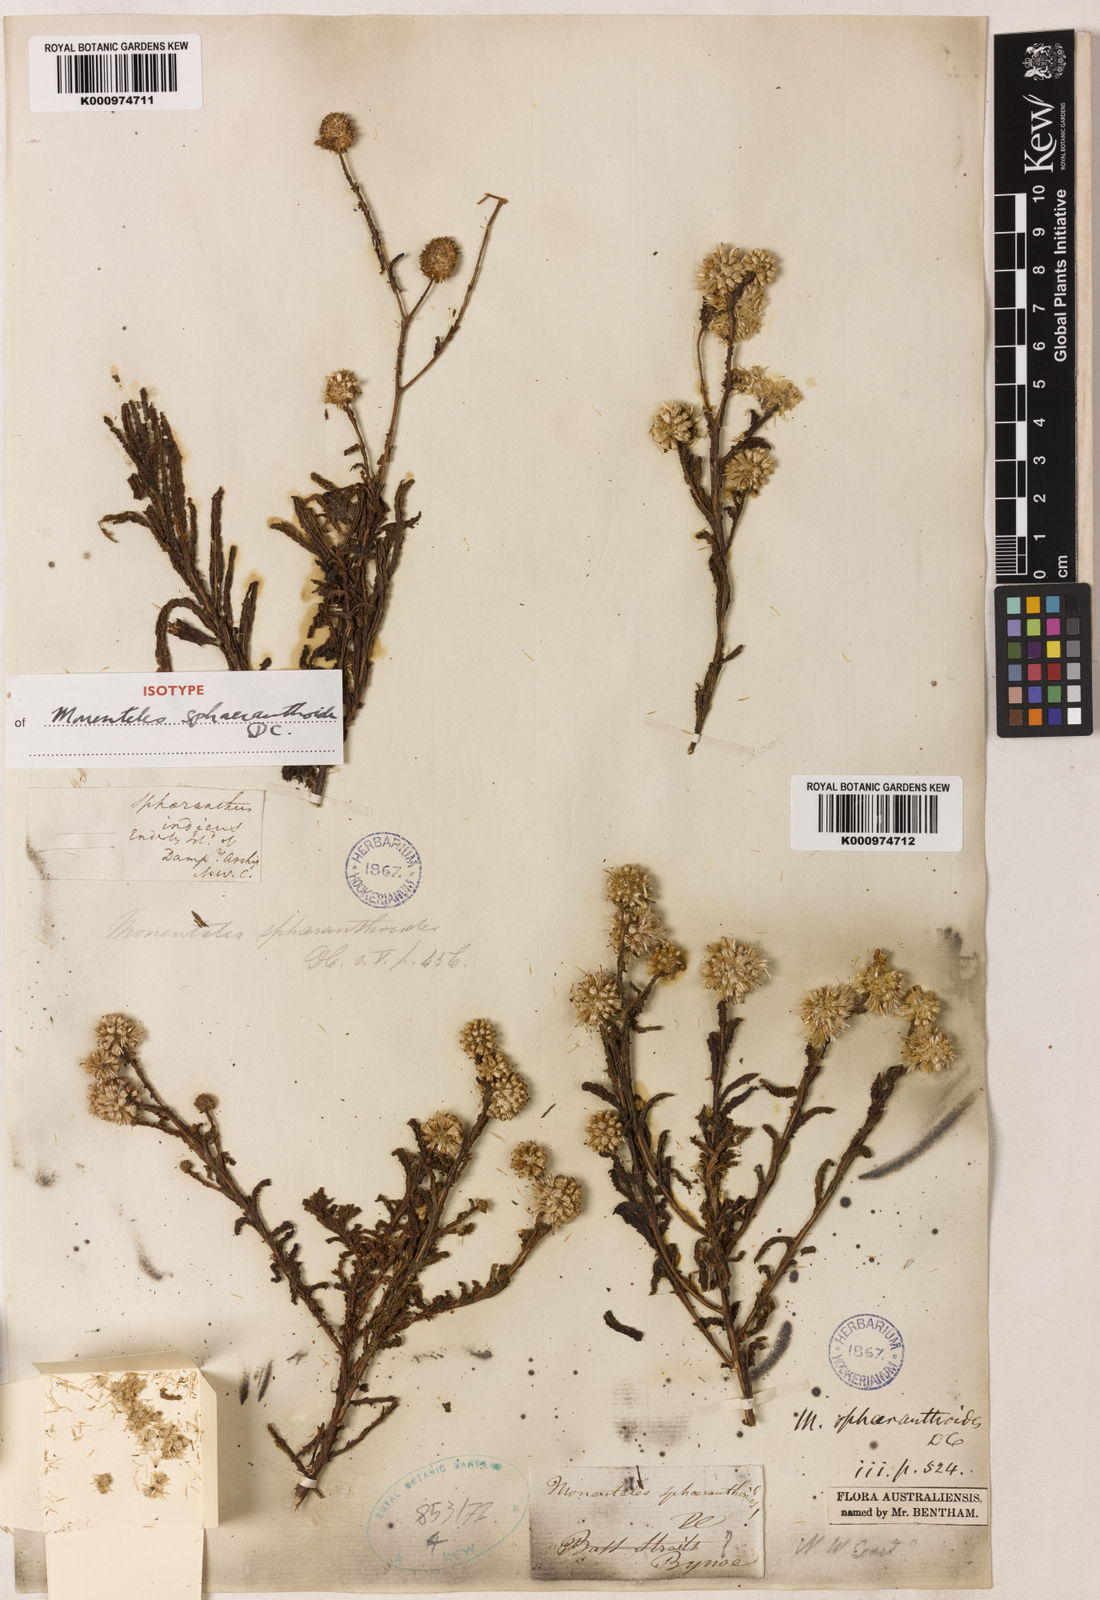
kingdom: Plantae
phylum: Tracheophyta
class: Magnoliopsida
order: Asterales
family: Asteraceae
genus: Pterocaulon
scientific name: Pterocaulon sphaeranthoides
